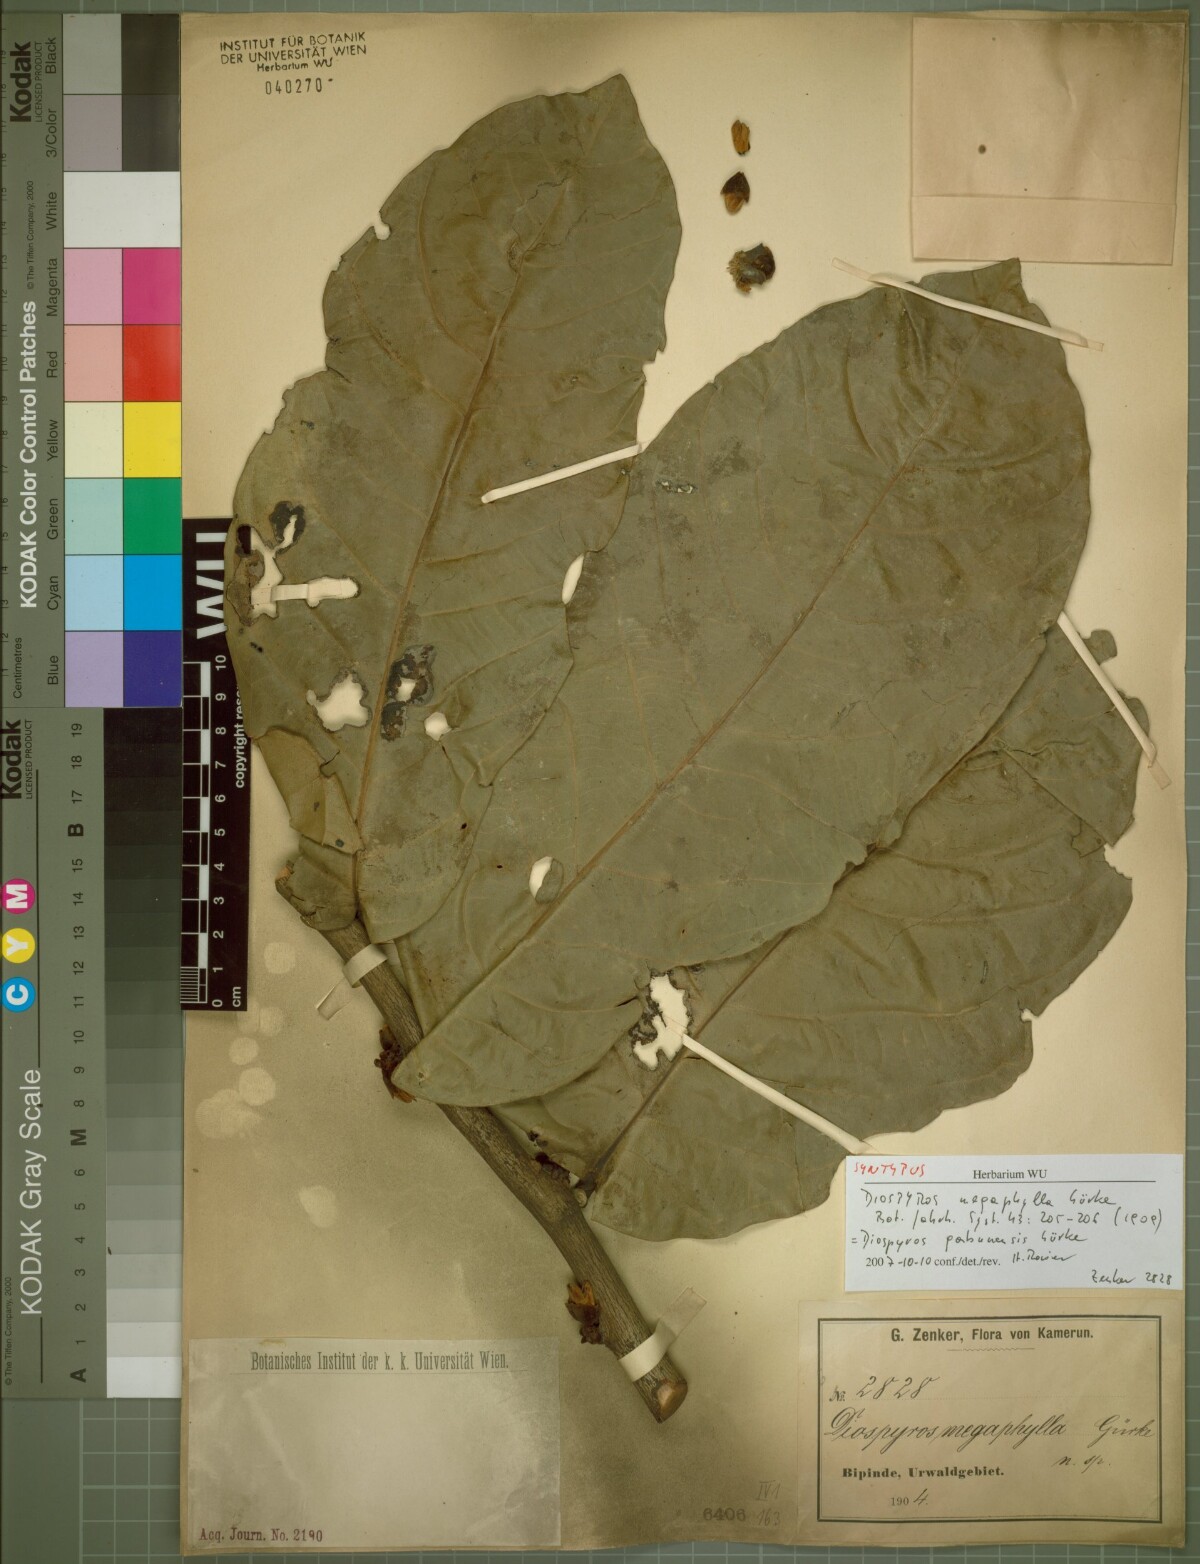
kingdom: Plantae
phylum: Tracheophyta
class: Magnoliopsida
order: Ericales
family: Ebenaceae
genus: Diospyros
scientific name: Diospyros gabunensis
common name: Flint bark tree
